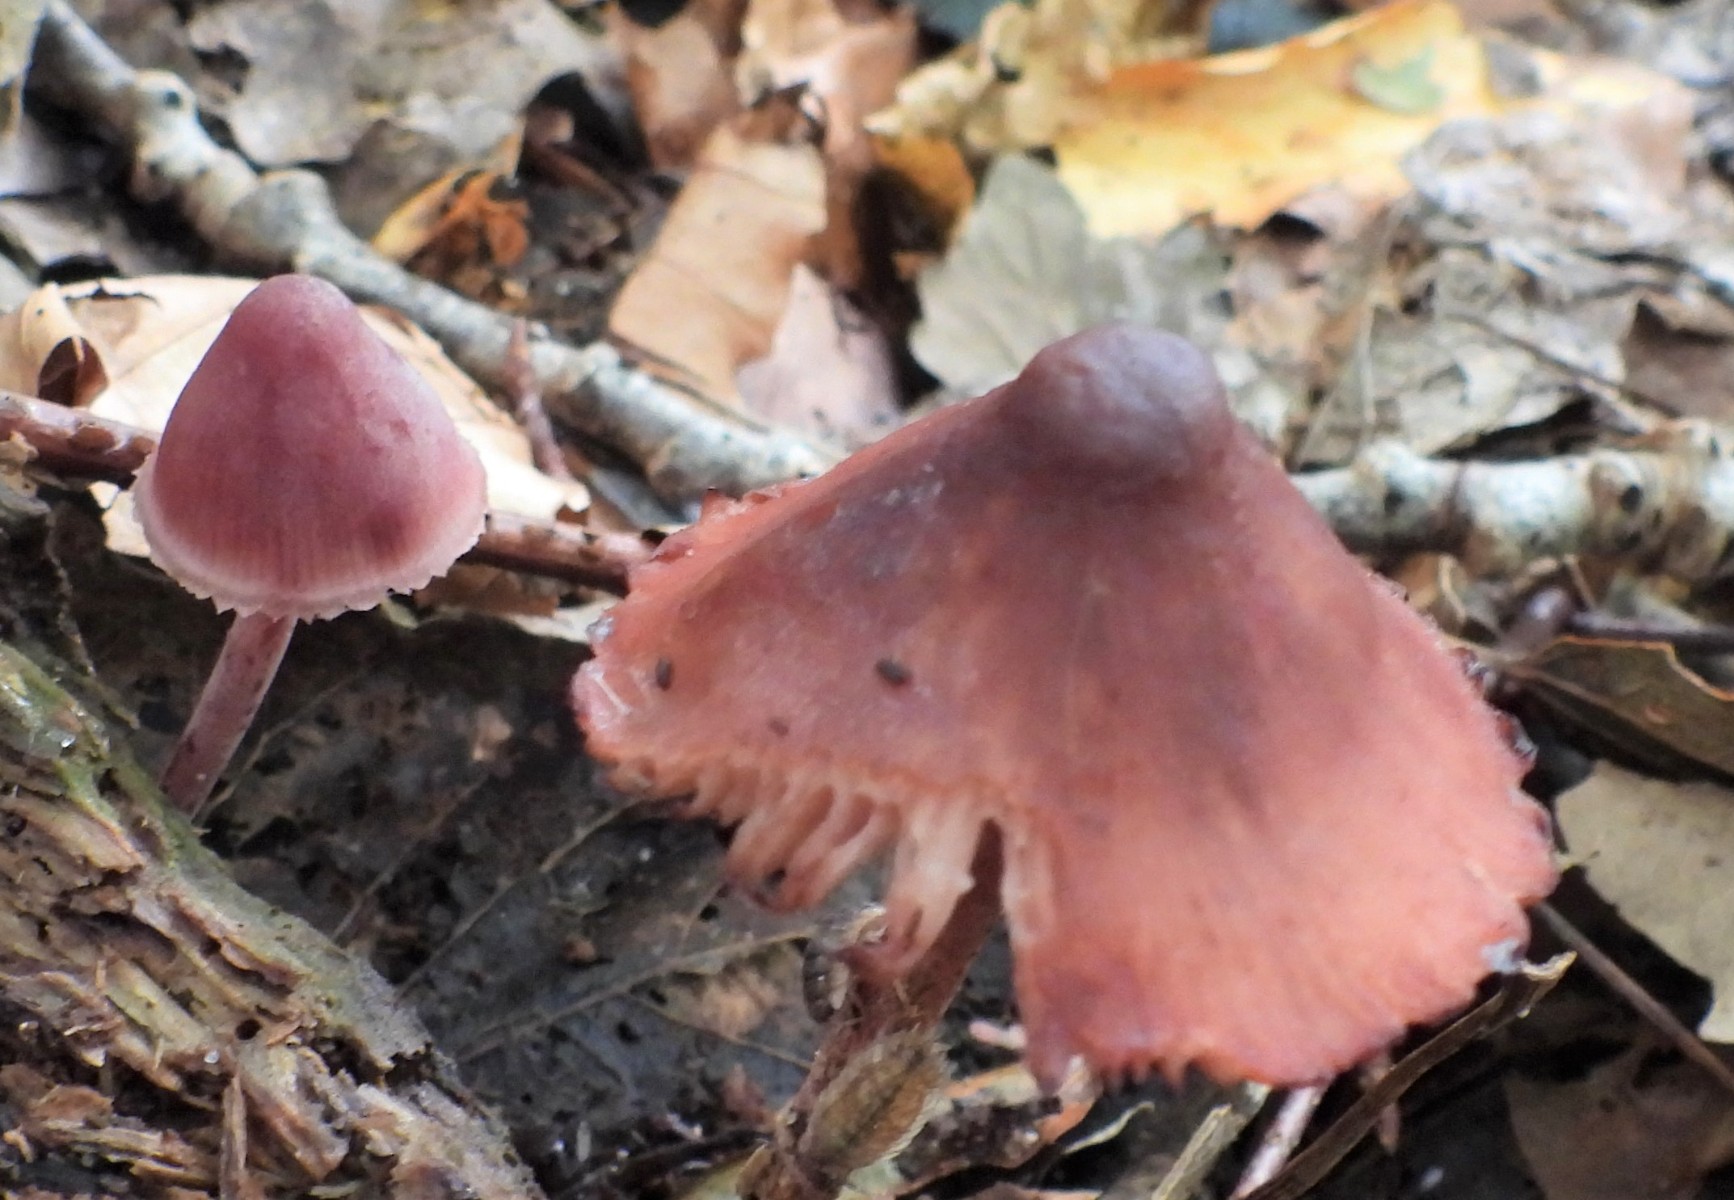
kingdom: Fungi
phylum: Basidiomycota
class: Agaricomycetes
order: Agaricales
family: Mycenaceae
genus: Mycena
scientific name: Mycena haematopus
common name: blødende huesvamp
